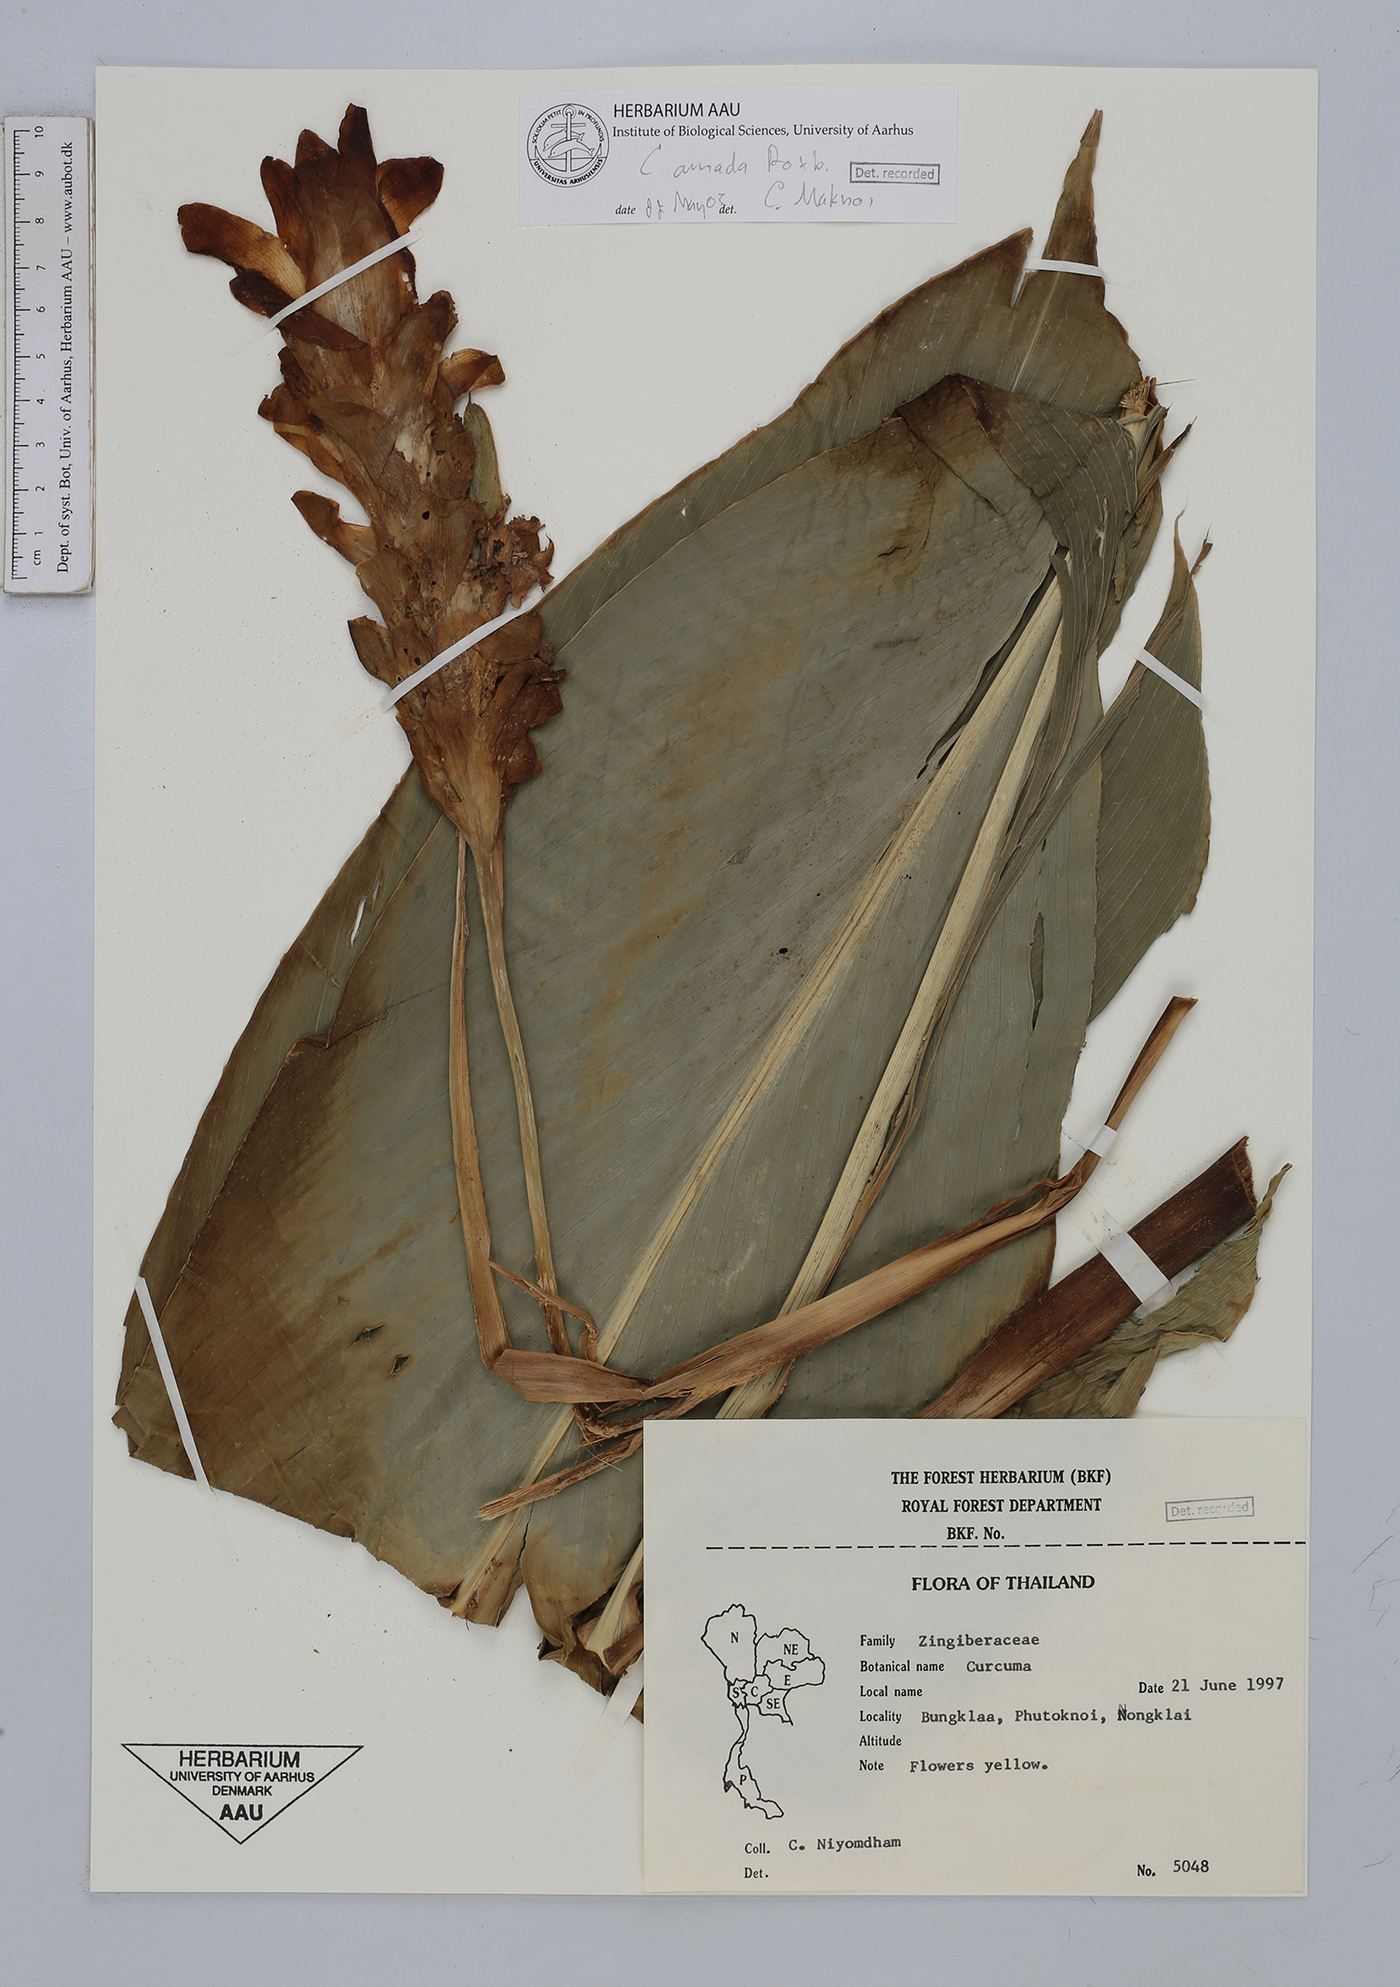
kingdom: Plantae
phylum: Tracheophyta
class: Liliopsida
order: Zingiberales
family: Zingiberaceae
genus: Curcuma
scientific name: Curcuma amada
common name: Mango-ginger
